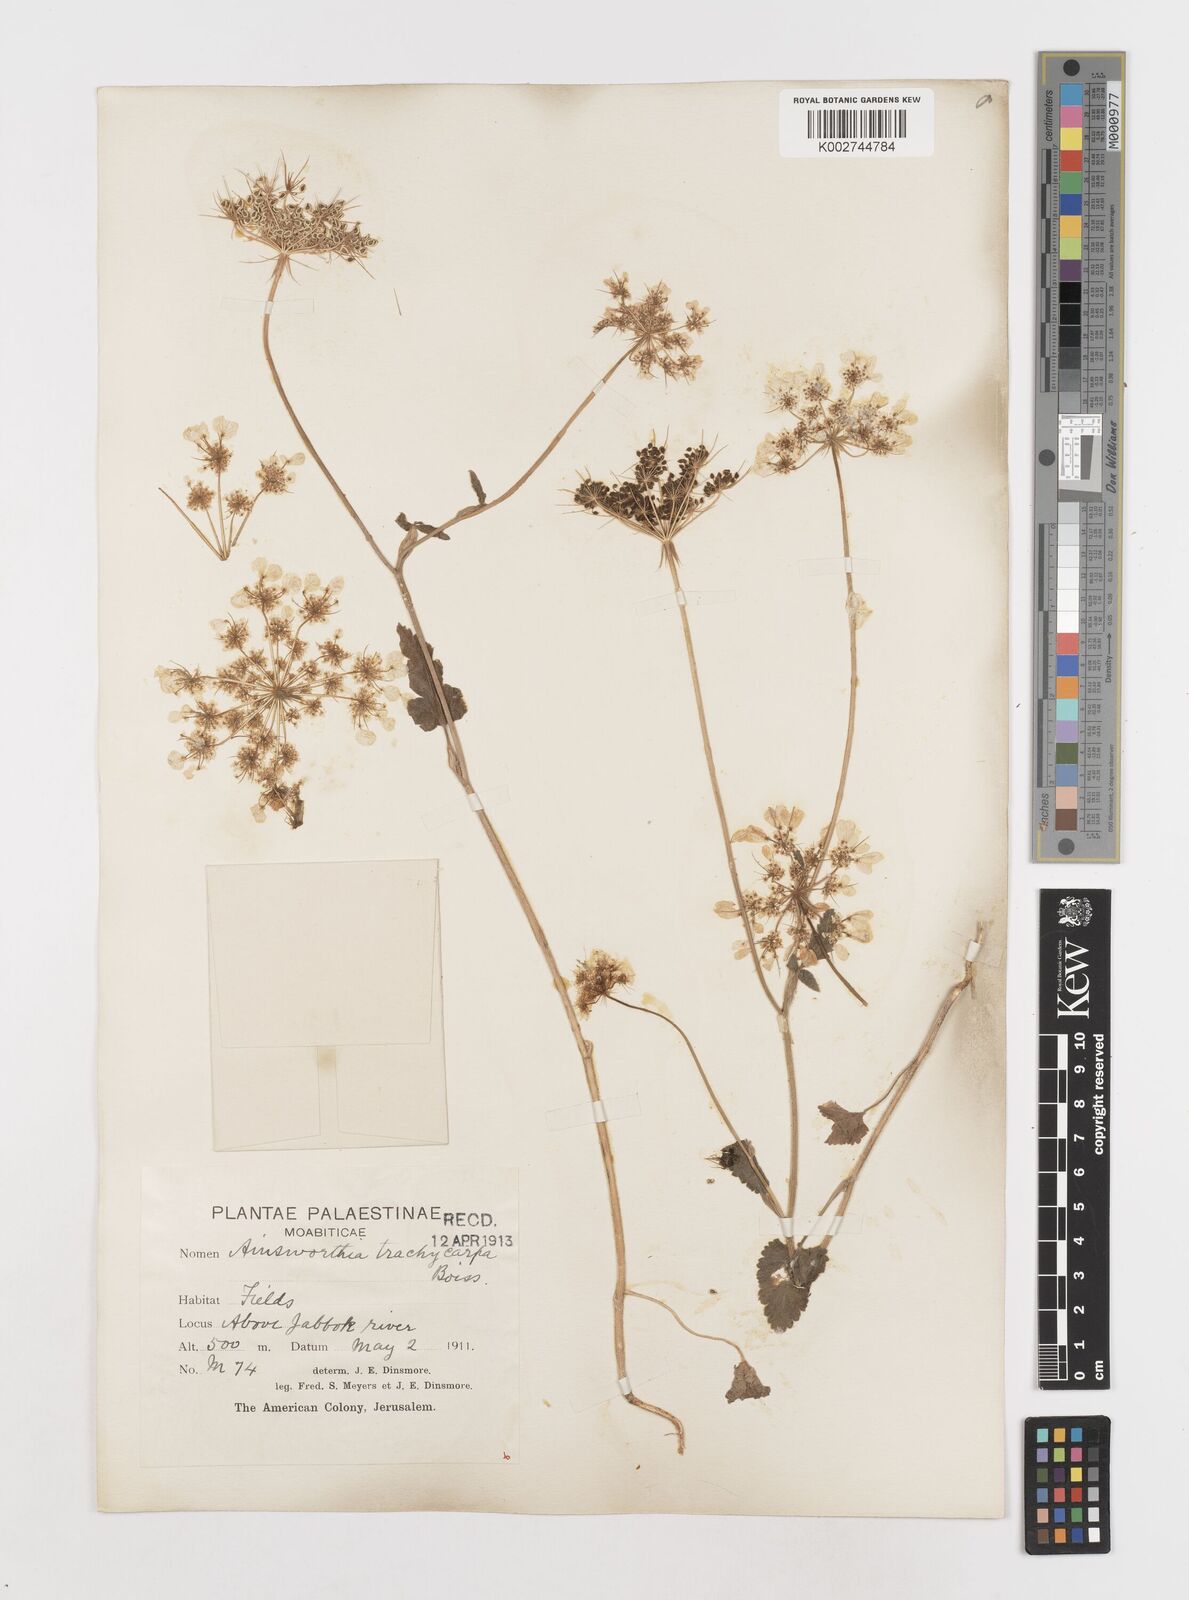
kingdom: Plantae
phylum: Tracheophyta
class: Magnoliopsida
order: Apiales
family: Apiaceae
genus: Ainsworthia
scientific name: Ainsworthia trachycarpa
